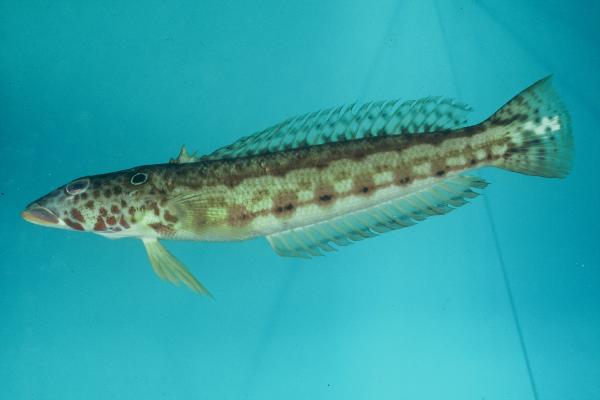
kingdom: Animalia
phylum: Chordata
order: Perciformes
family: Pinguipedidae
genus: Parapercis
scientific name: Parapercis clathrata
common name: Latticed sandperch
